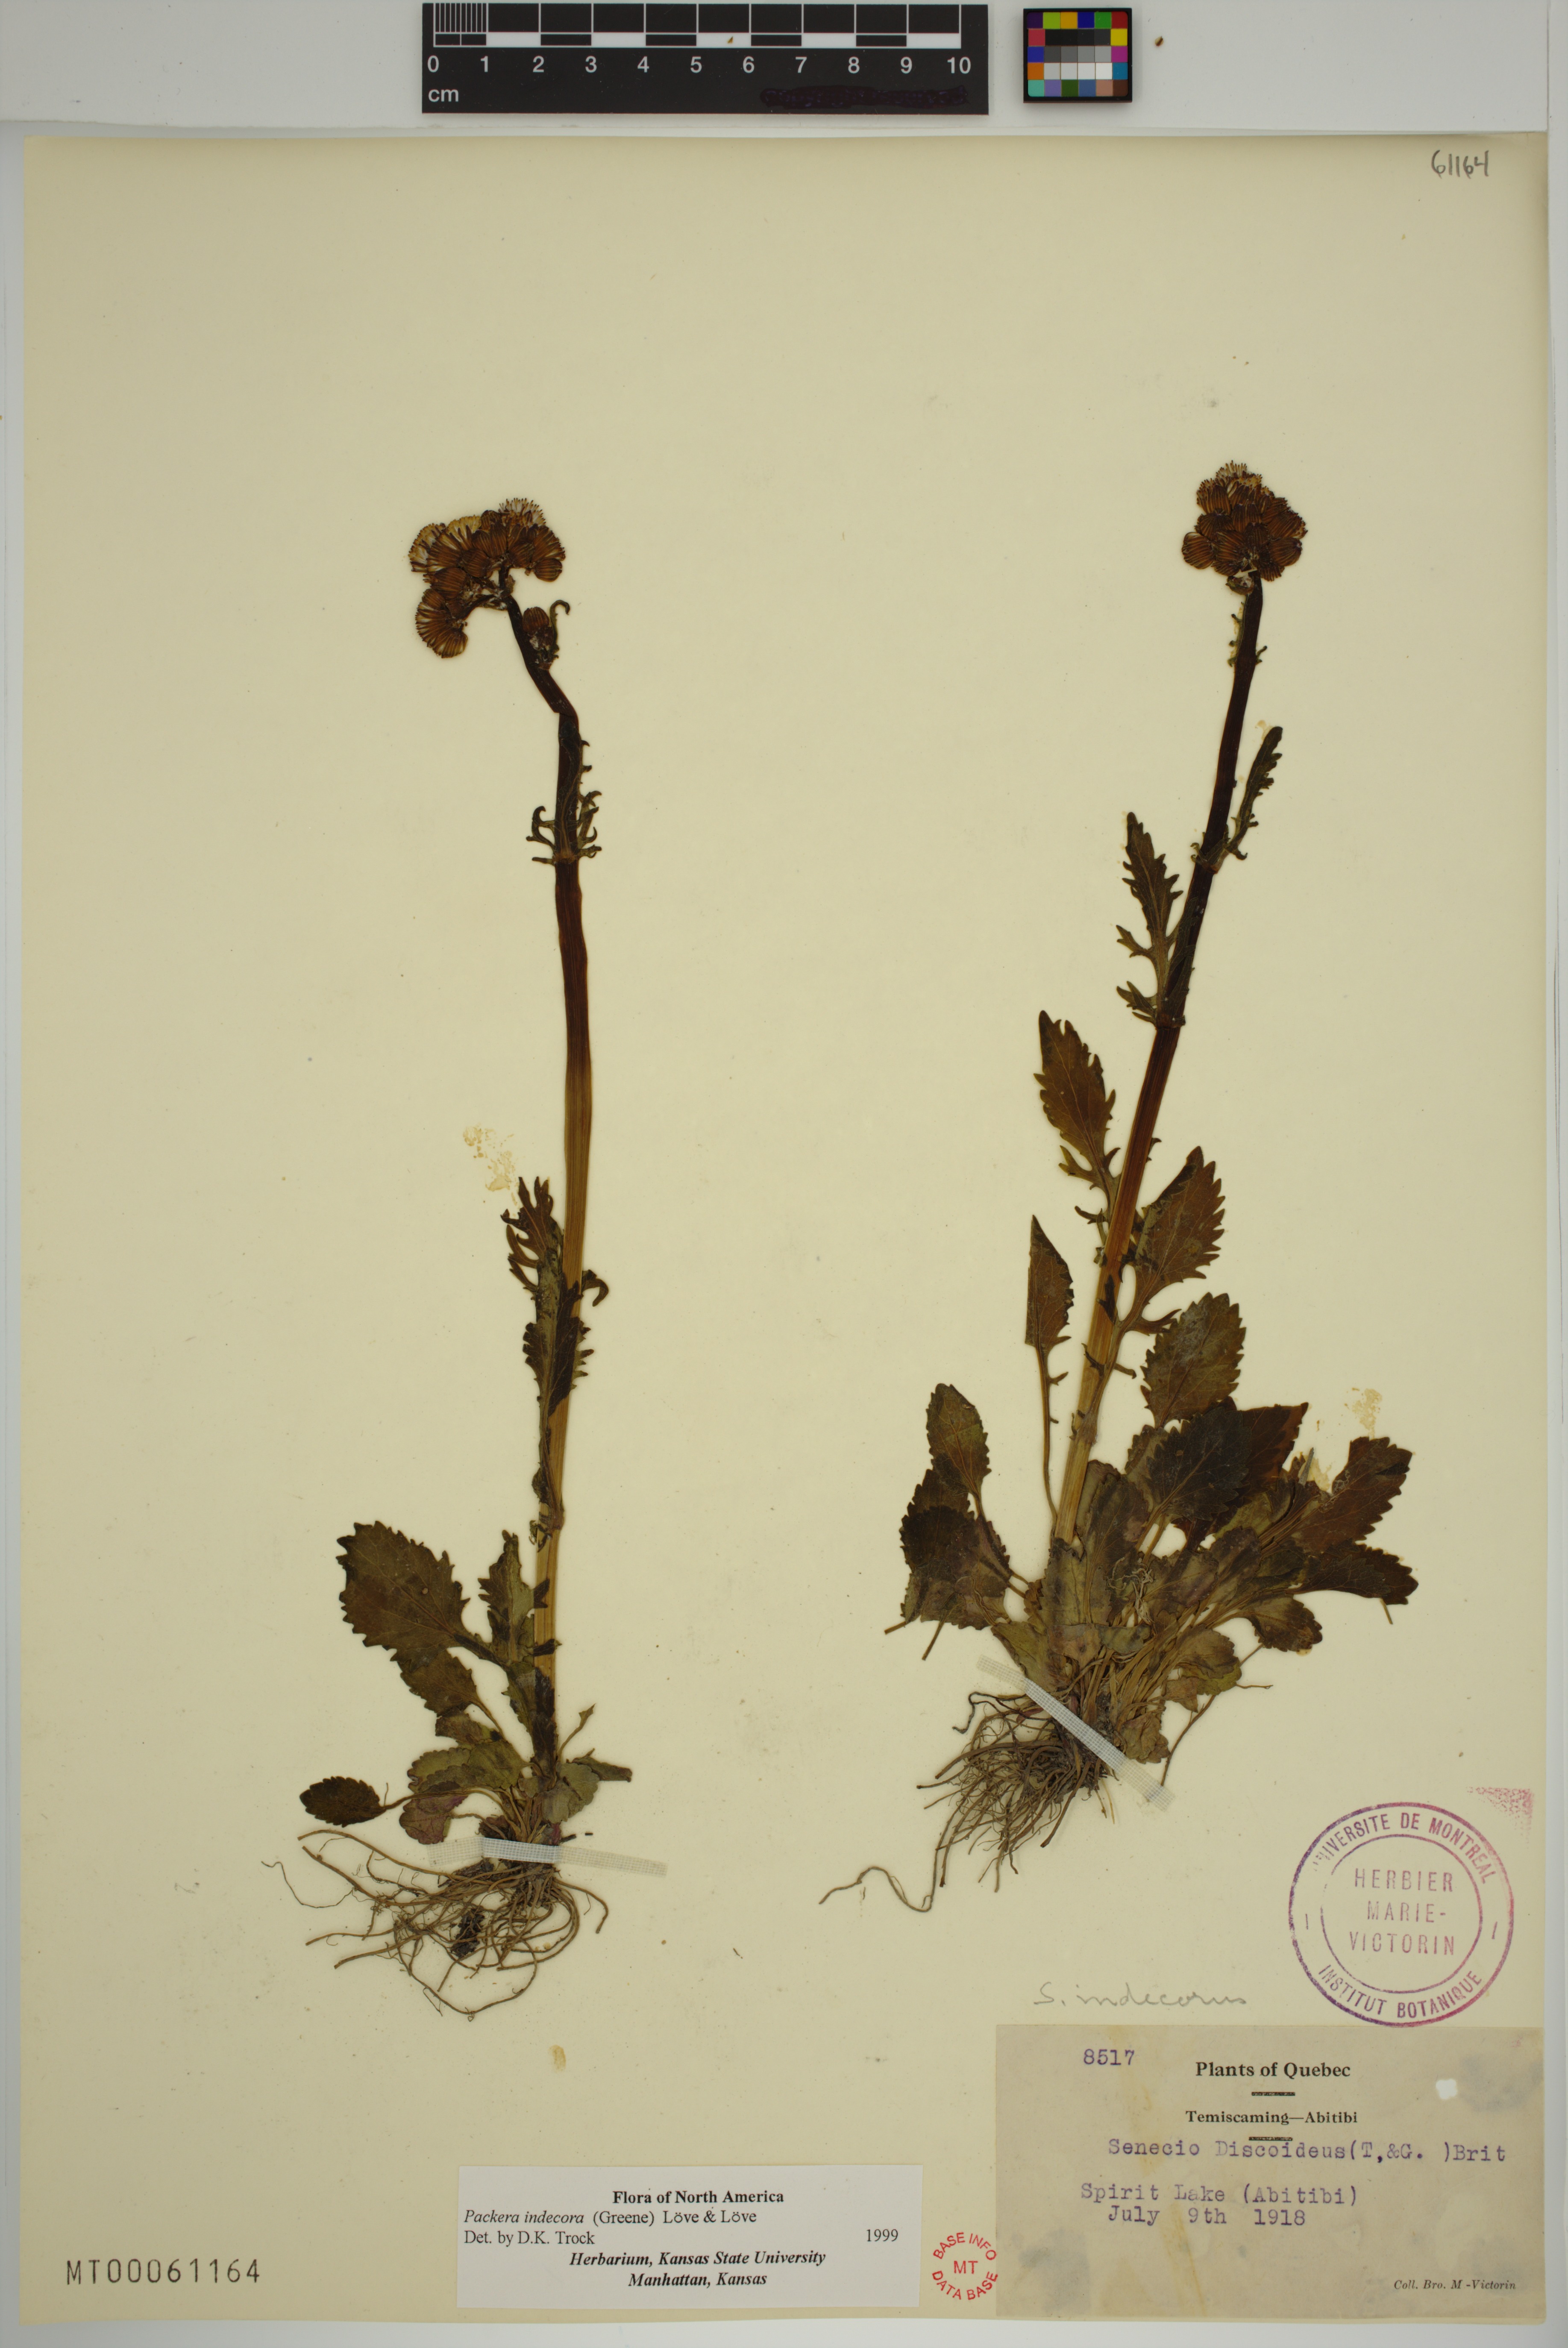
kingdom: Plantae
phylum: Tracheophyta
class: Magnoliopsida
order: Asterales
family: Asteraceae
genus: Packera
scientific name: Packera indecora
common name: Elegant groundsel
